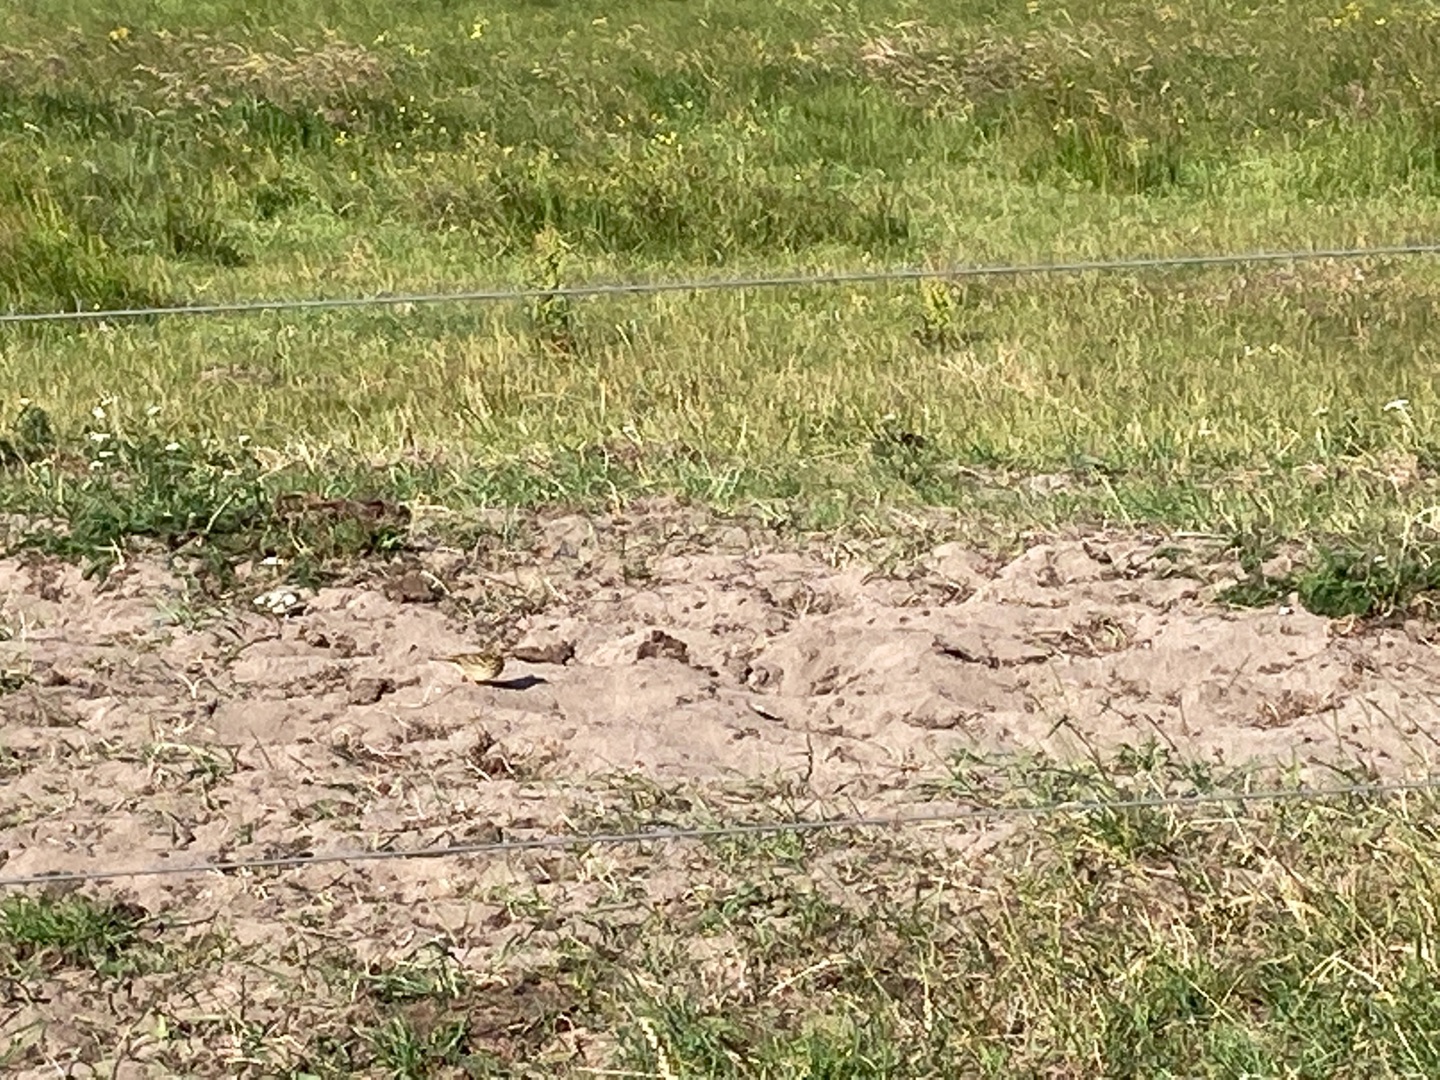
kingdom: Animalia
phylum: Chordata
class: Aves
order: Passeriformes
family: Emberizidae
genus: Emberiza
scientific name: Emberiza citrinella
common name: Gulspurv
